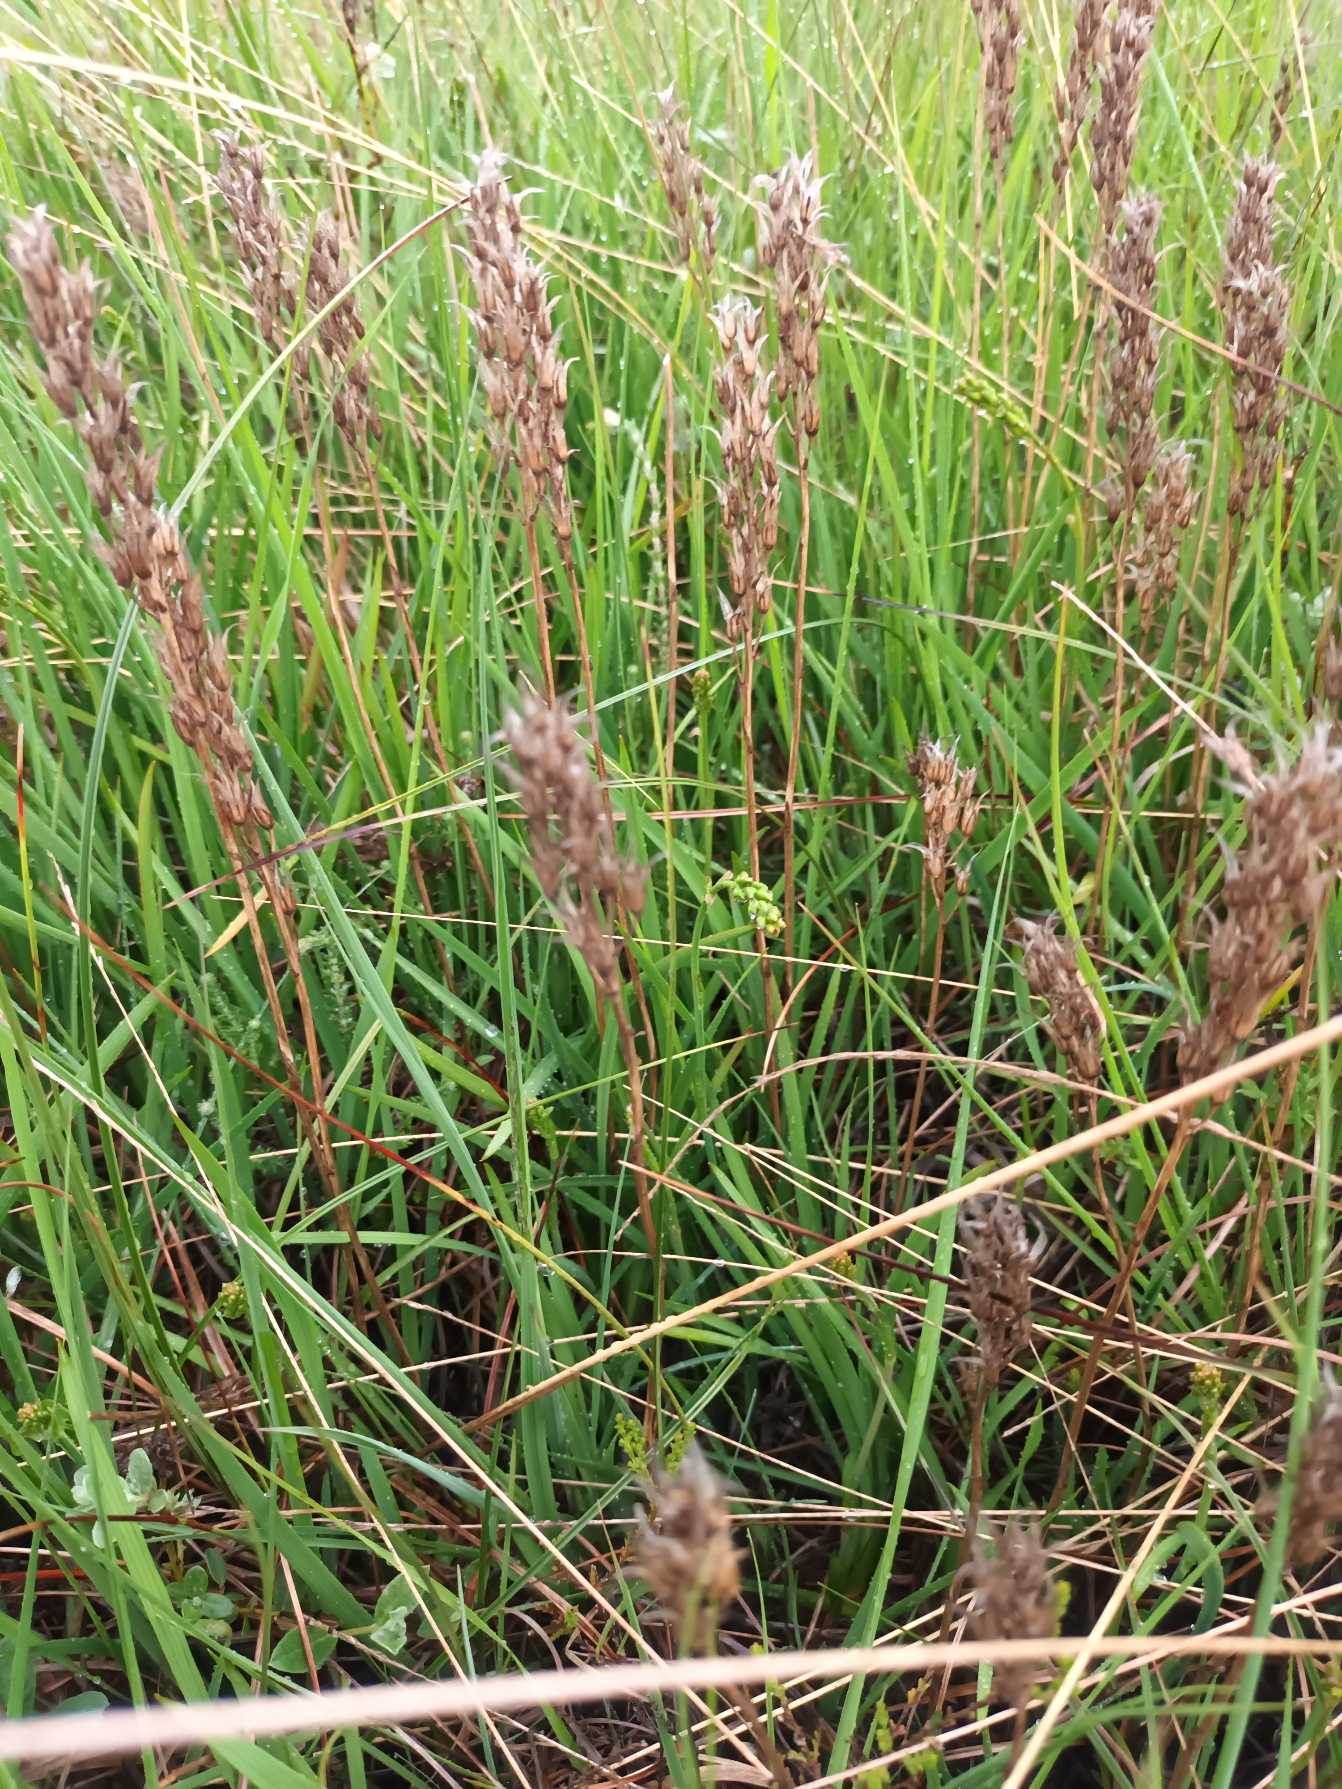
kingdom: Plantae
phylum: Tracheophyta
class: Liliopsida
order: Dioscoreales
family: Nartheciaceae
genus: Narthecium
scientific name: Narthecium ossifragum
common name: Benbræk
